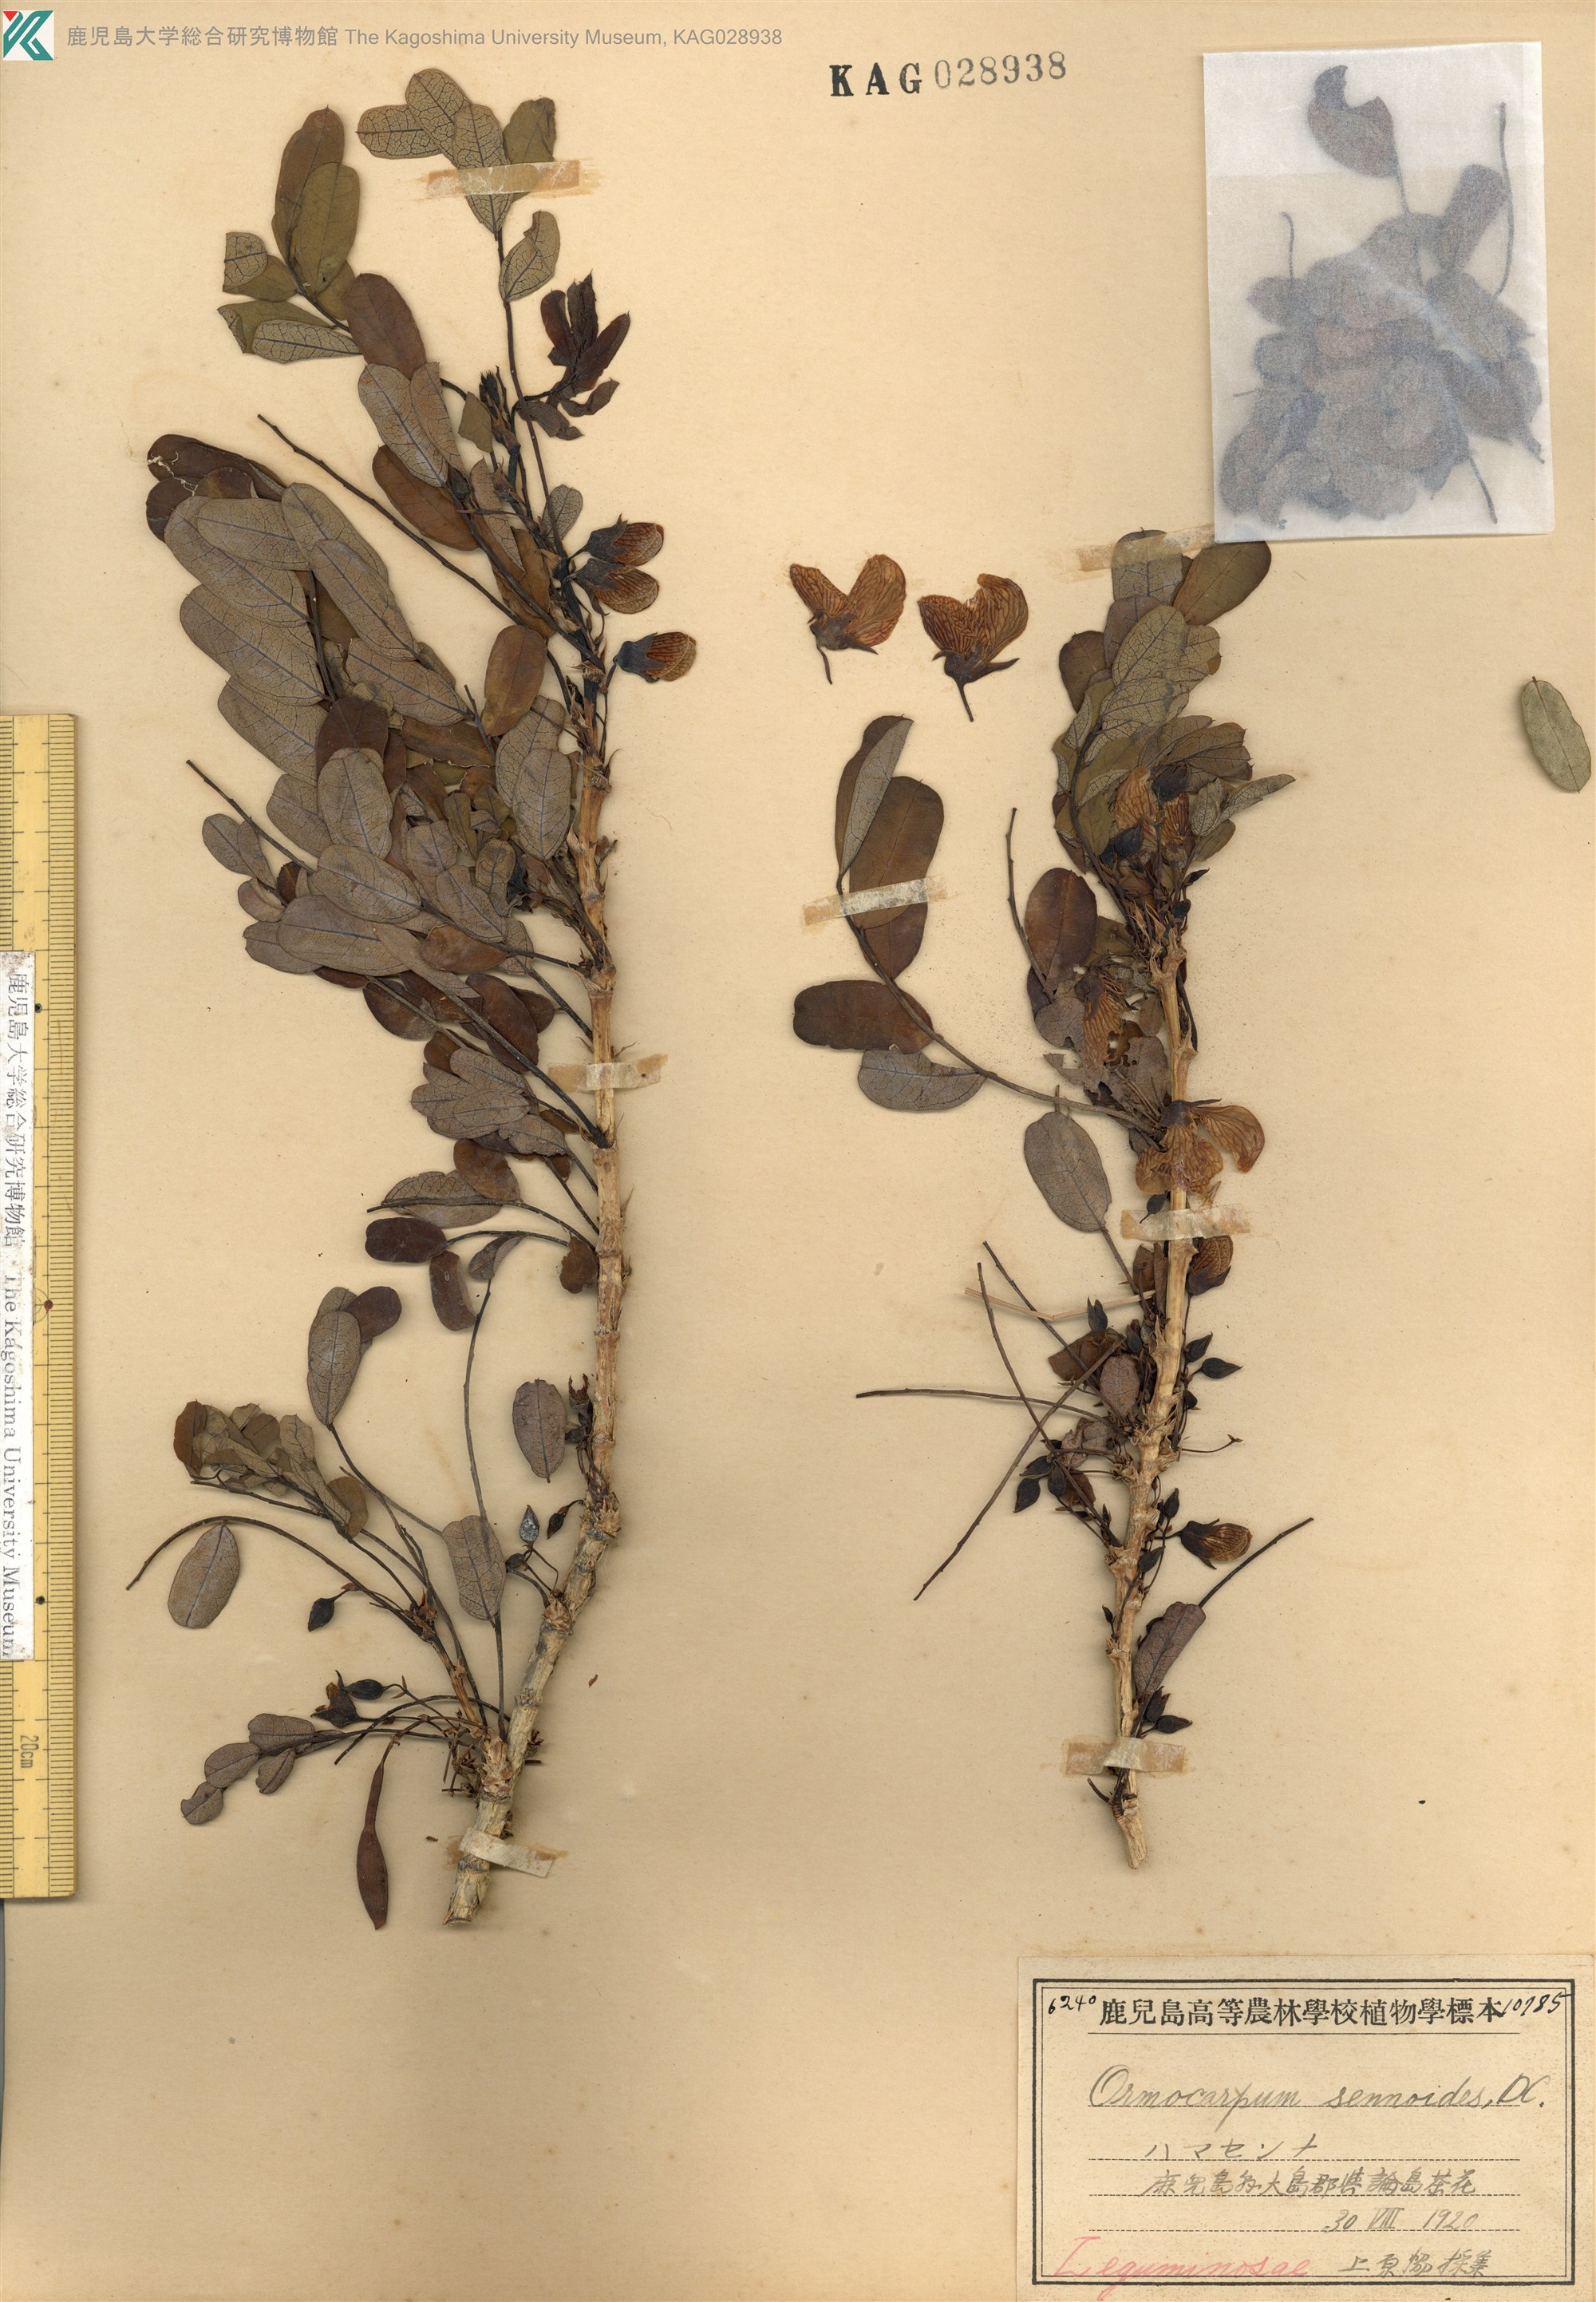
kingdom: Plantae
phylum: Tracheophyta
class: Magnoliopsida
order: Fabales
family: Fabaceae
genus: Ormocarpum
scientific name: Ormocarpum cochinchinense
